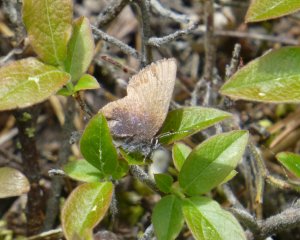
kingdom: Animalia
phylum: Arthropoda
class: Insecta
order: Lepidoptera
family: Lycaenidae
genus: Incisalia
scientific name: Incisalia irioides
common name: Brown Elfin
